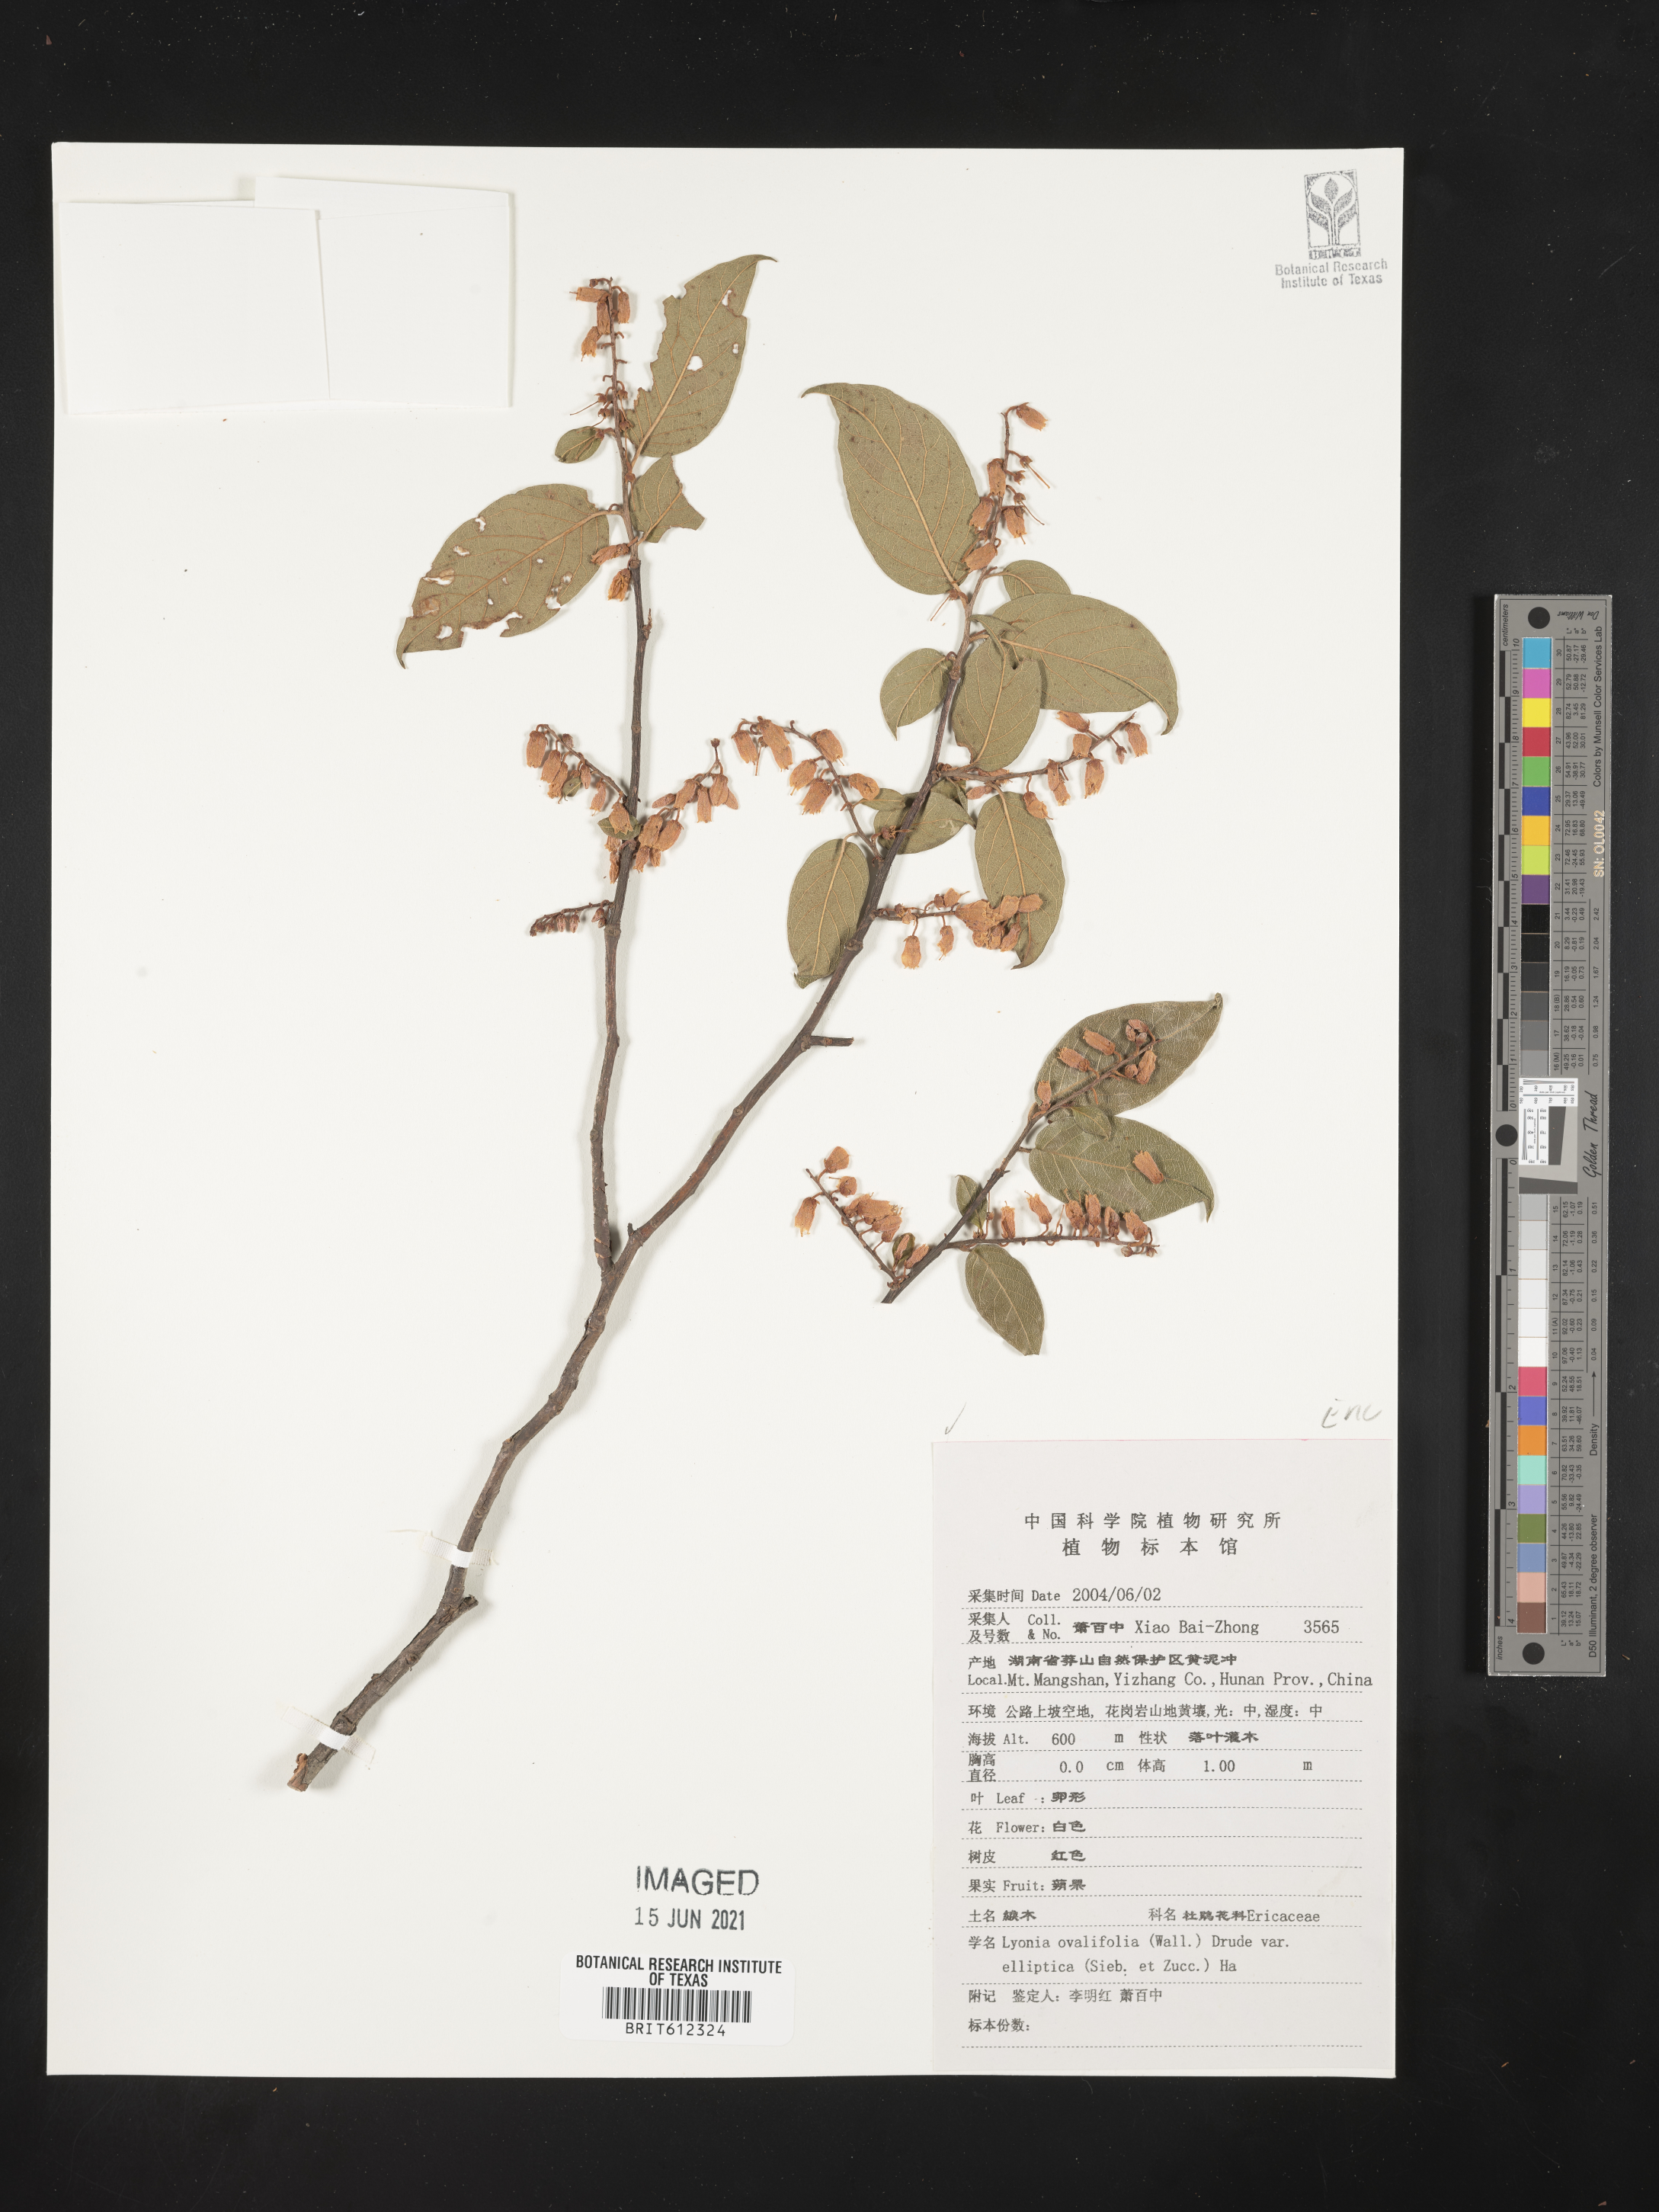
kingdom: Plantae
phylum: Tracheophyta
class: Magnoliopsida
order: Ericales
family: Ericaceae
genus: Lyonia
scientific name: Lyonia ovalifolia
